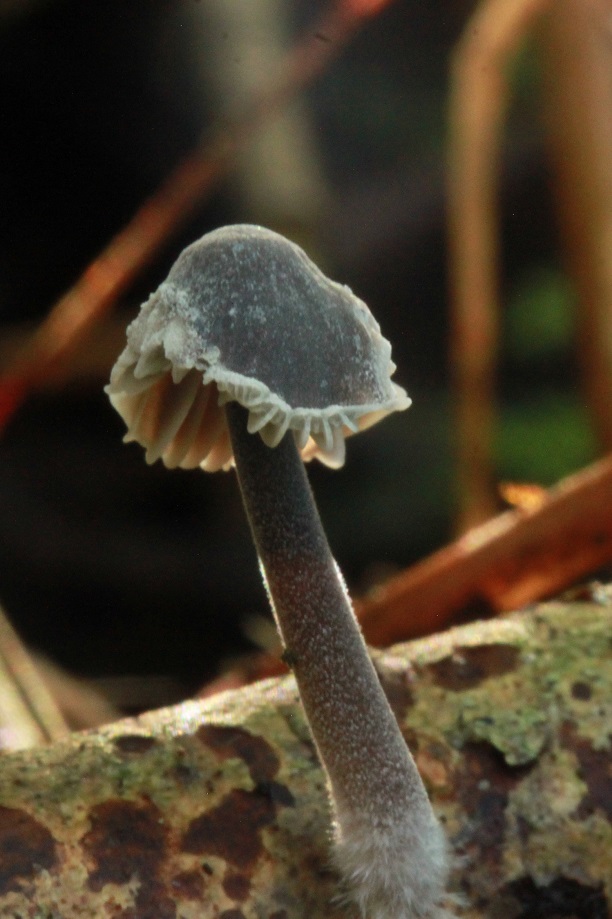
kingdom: Fungi
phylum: Basidiomycota
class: Agaricomycetes
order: Agaricales
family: Mycenaceae
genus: Mycena
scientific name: Mycena leptocephala
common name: klor-huesvamp
